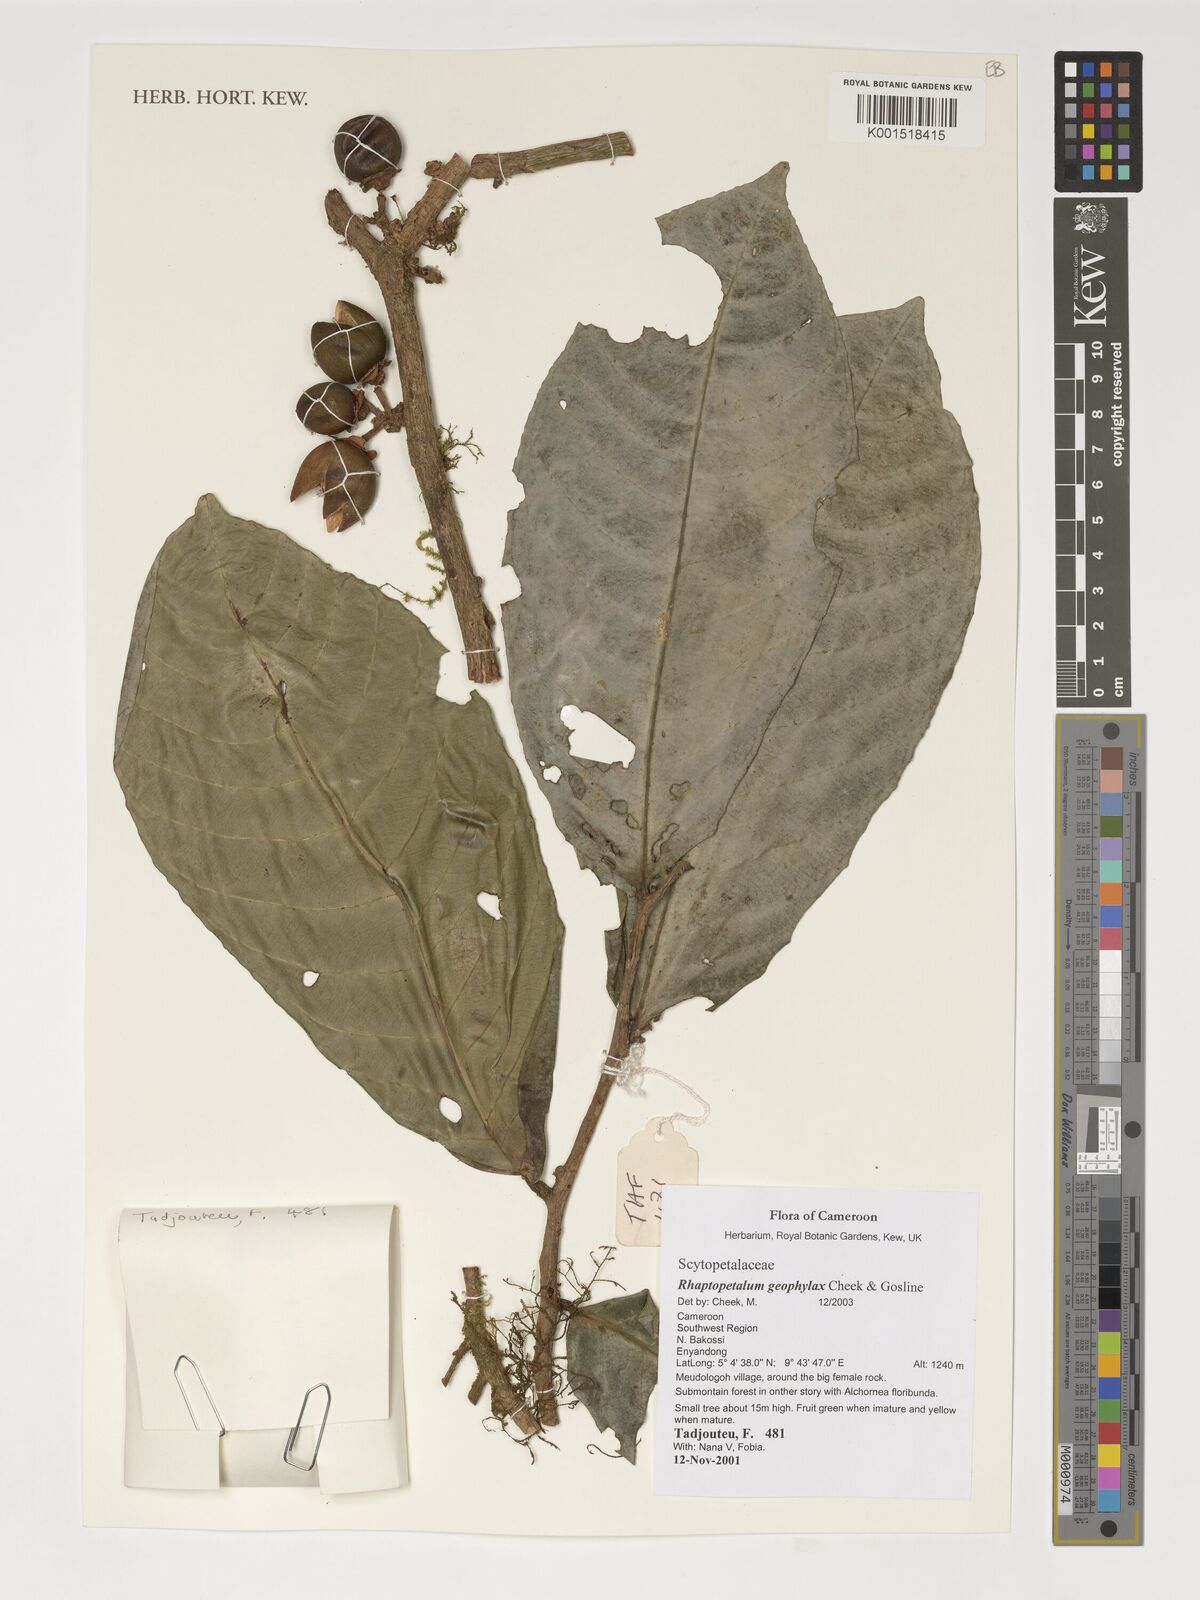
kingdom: Plantae
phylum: Tracheophyta
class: Magnoliopsida
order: Ericales
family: Lecythidaceae
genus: Rhaptopetalum
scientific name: Rhaptopetalum geophylax
